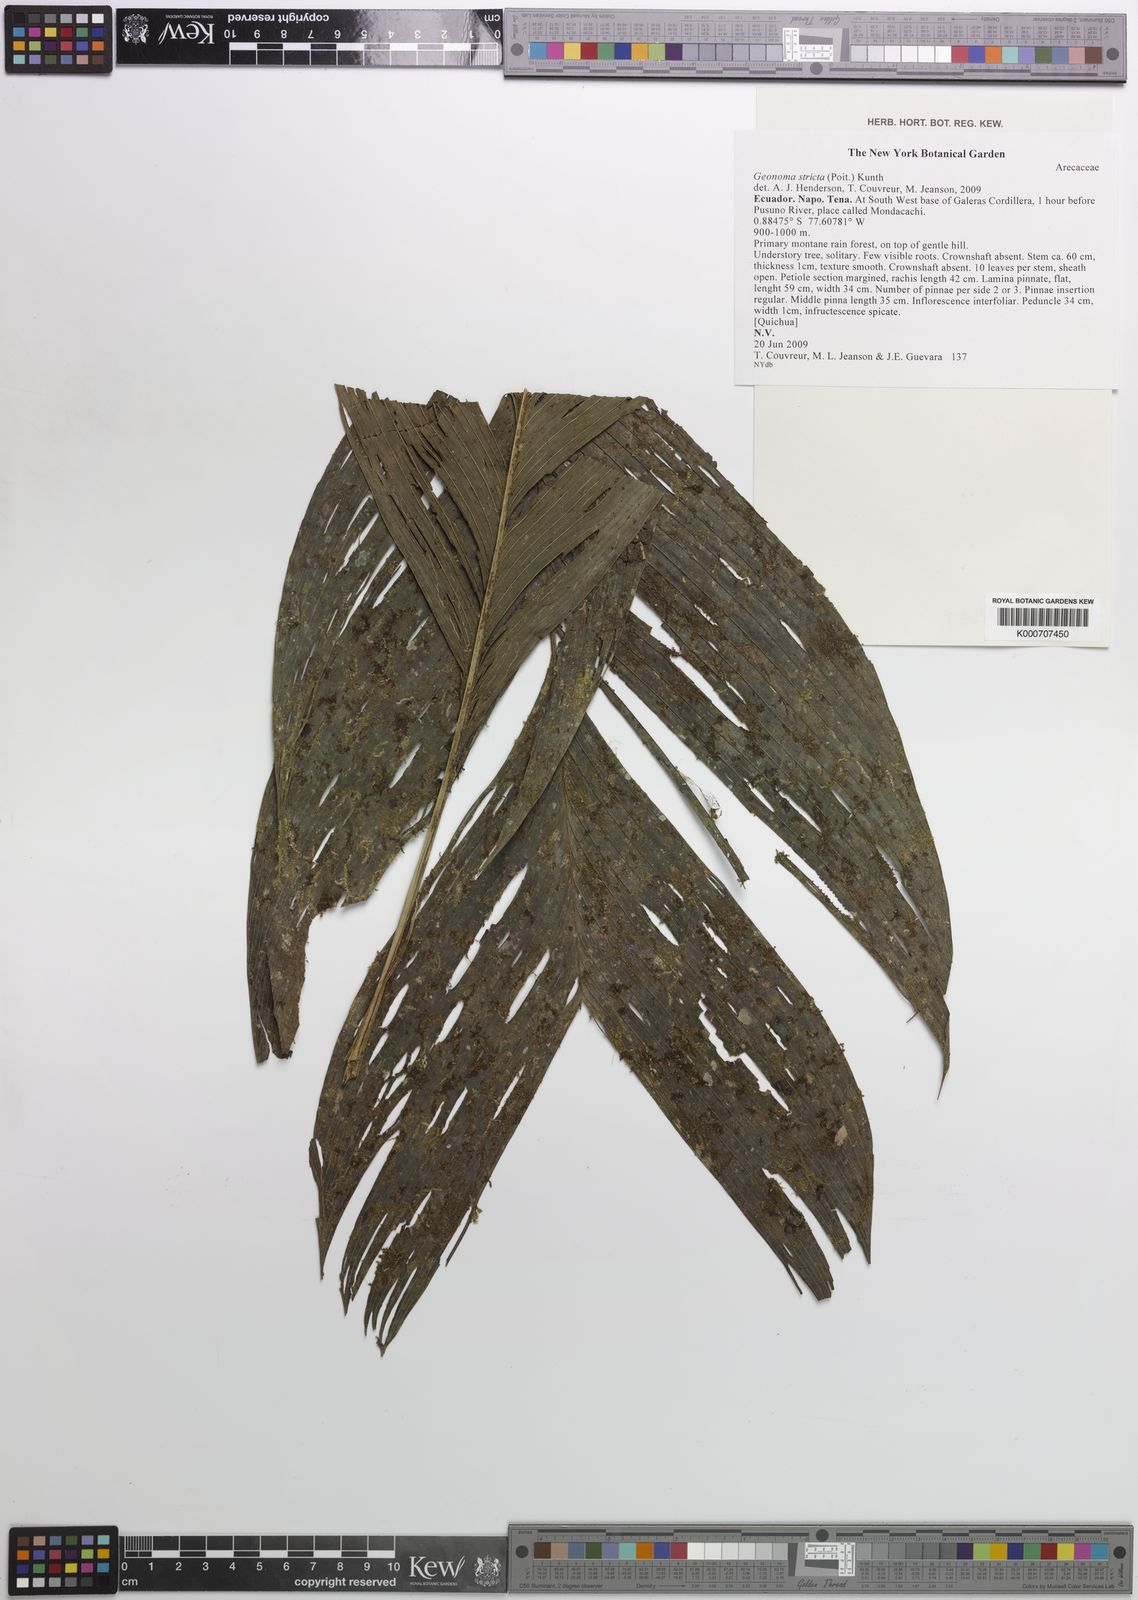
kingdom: Plantae
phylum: Tracheophyta
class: Liliopsida
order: Arecales
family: Arecaceae
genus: Geonoma
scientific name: Geonoma stricta
